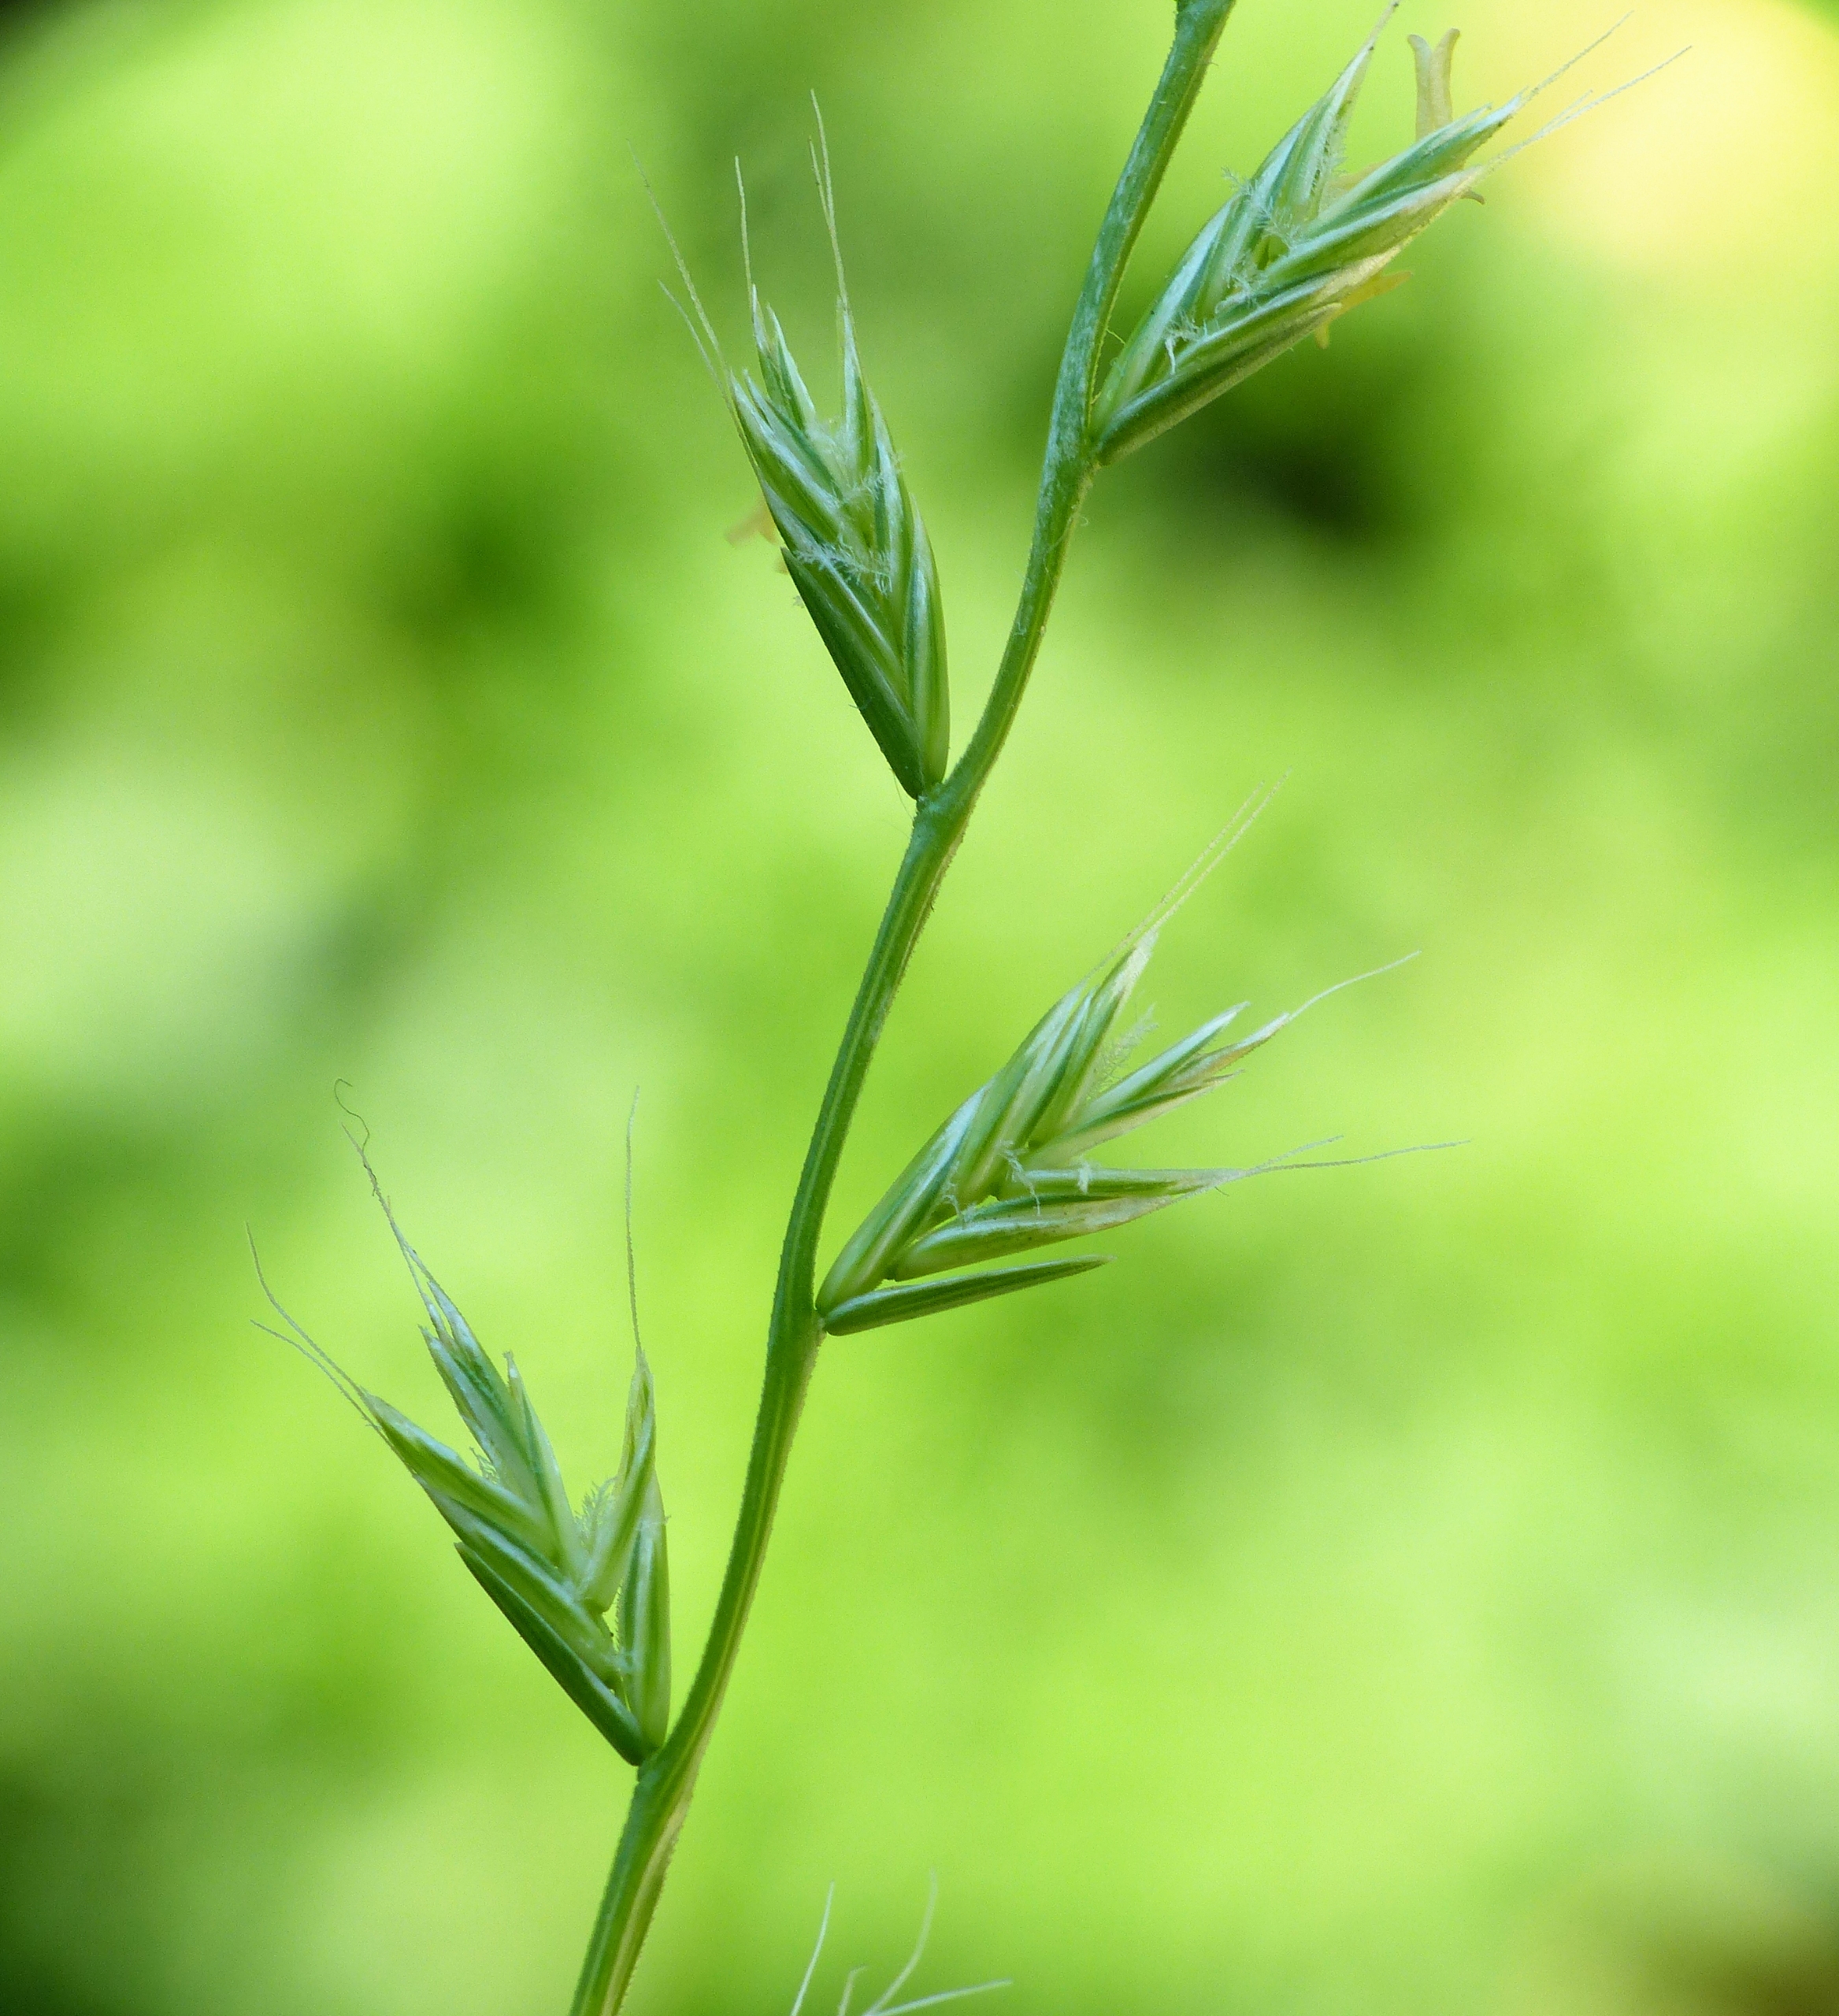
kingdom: Plantae
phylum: Tracheophyta
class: Liliopsida
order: Poales
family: Poaceae
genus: Lolium
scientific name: Lolium multiflorum
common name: Italiensk rajgræs
